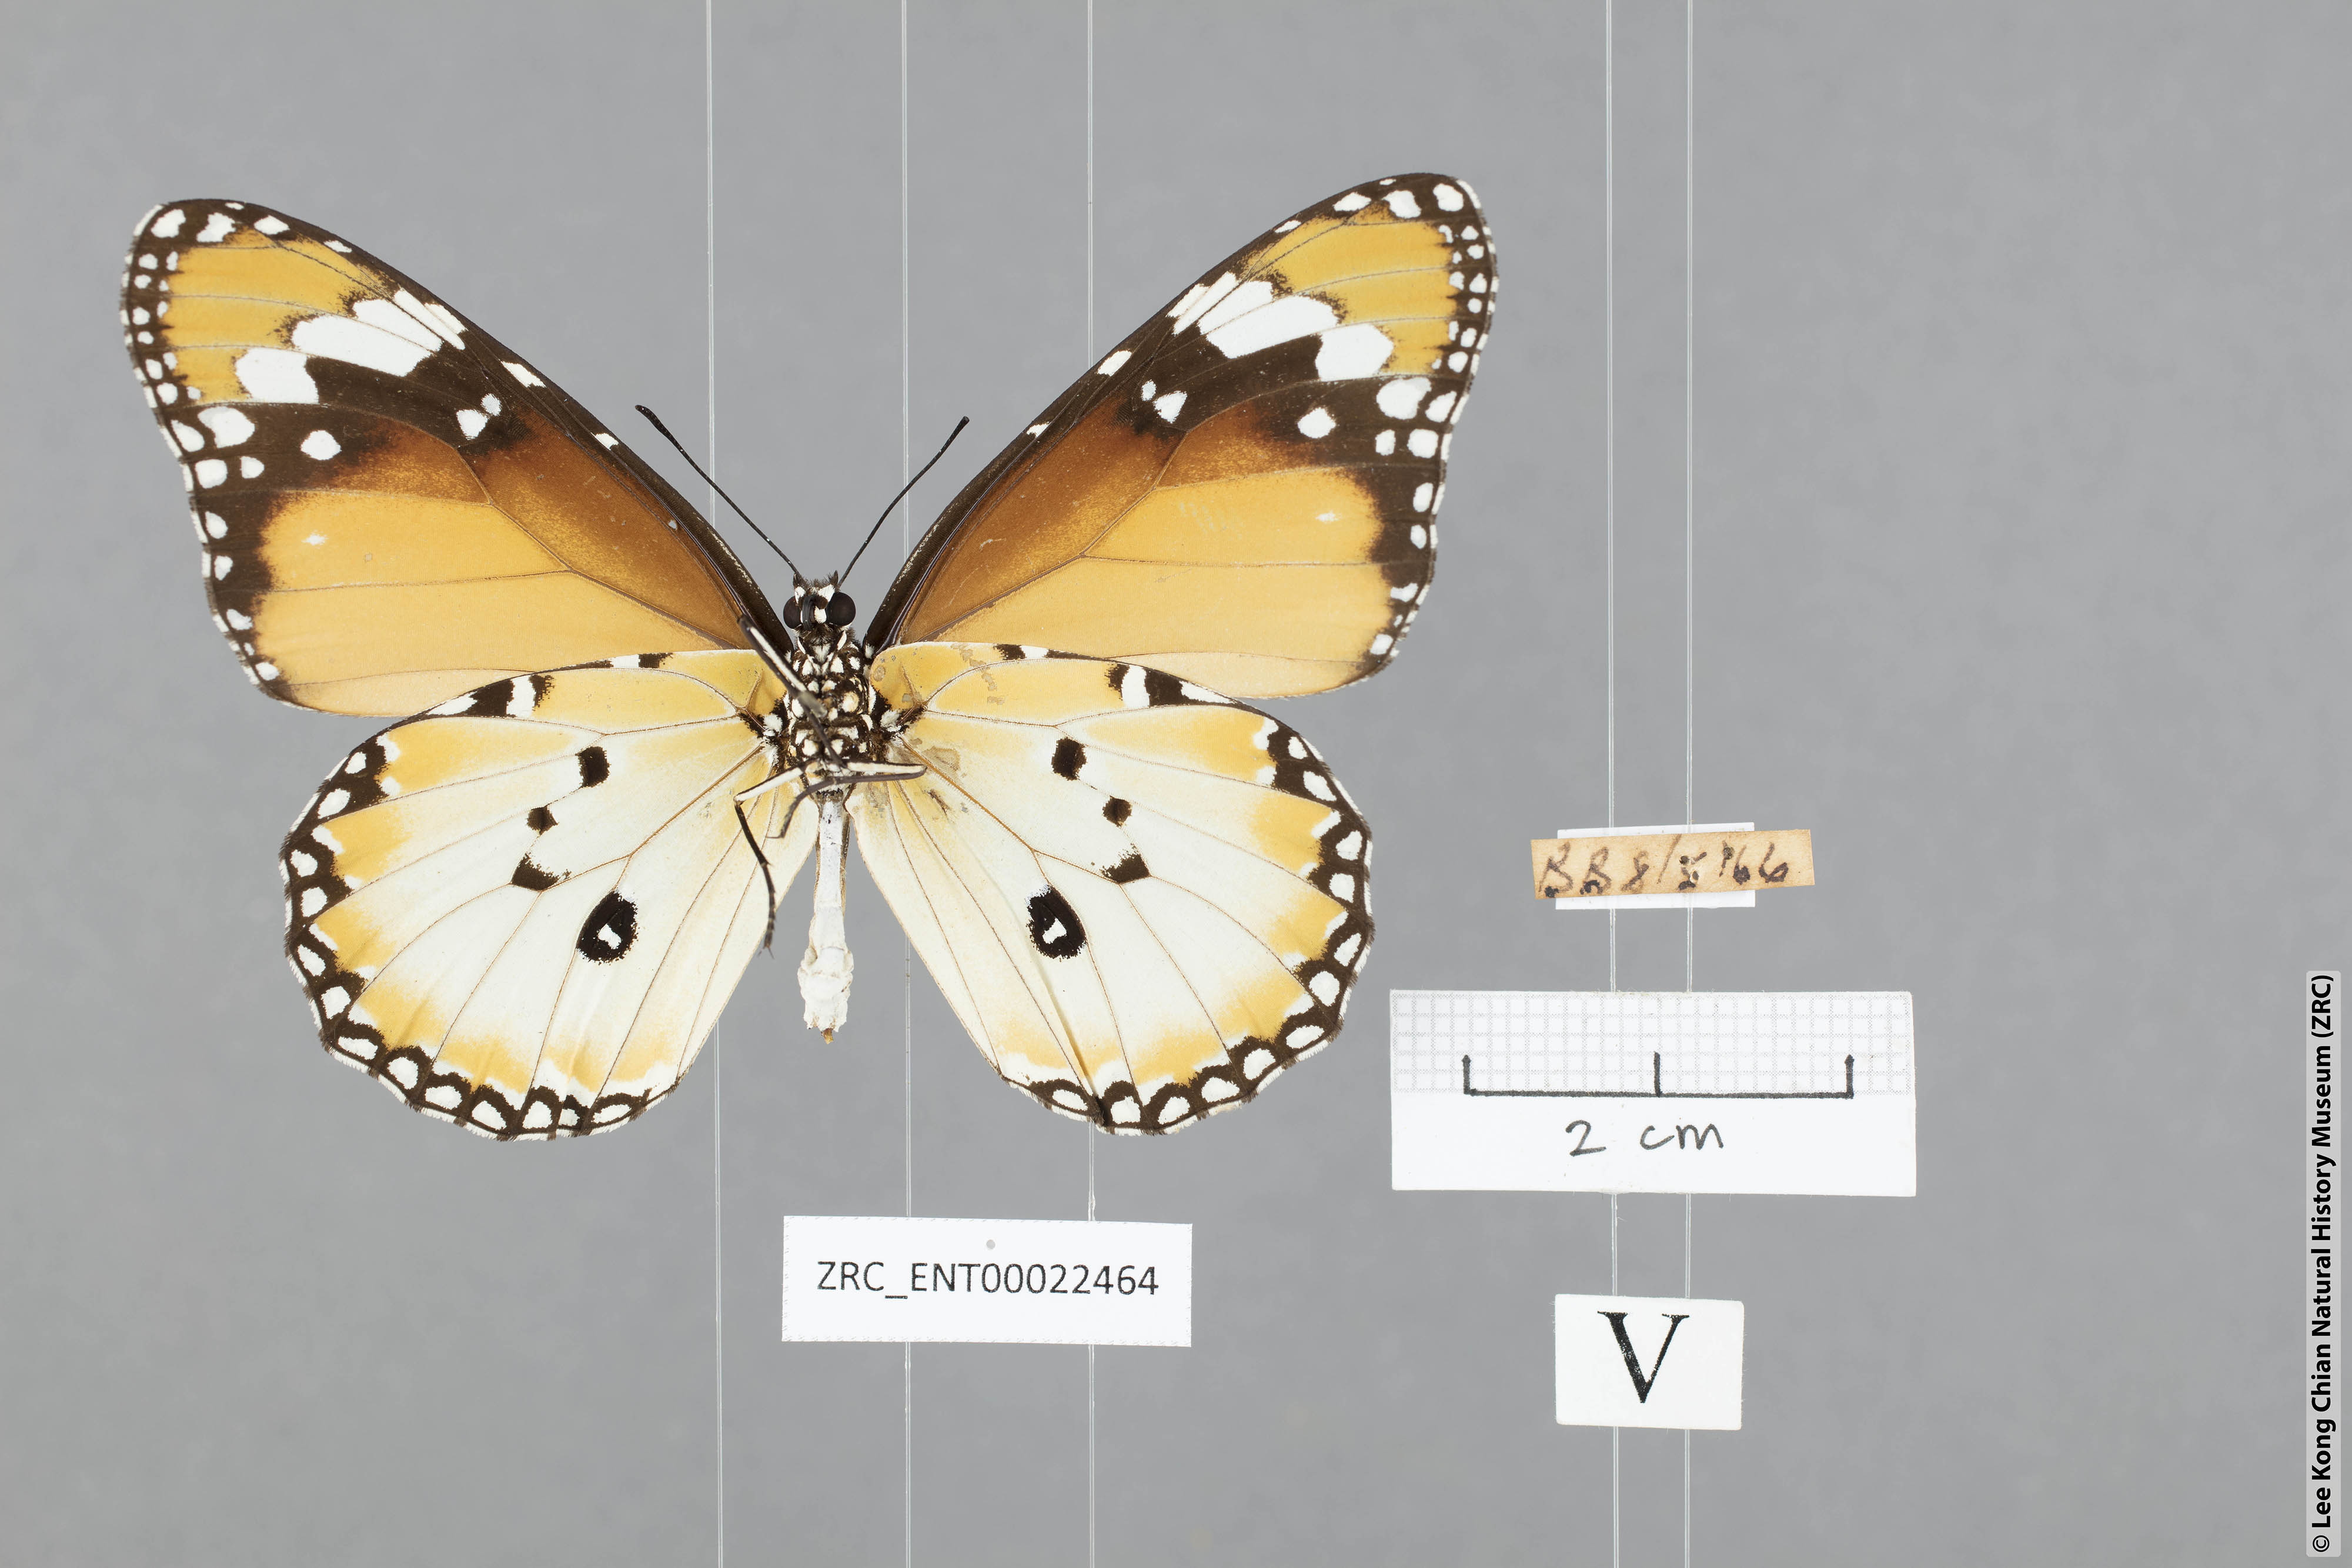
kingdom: Animalia
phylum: Arthropoda
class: Insecta
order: Lepidoptera
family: Nymphalidae
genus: Danaus
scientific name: Danaus chrysippus
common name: Plain tiger
